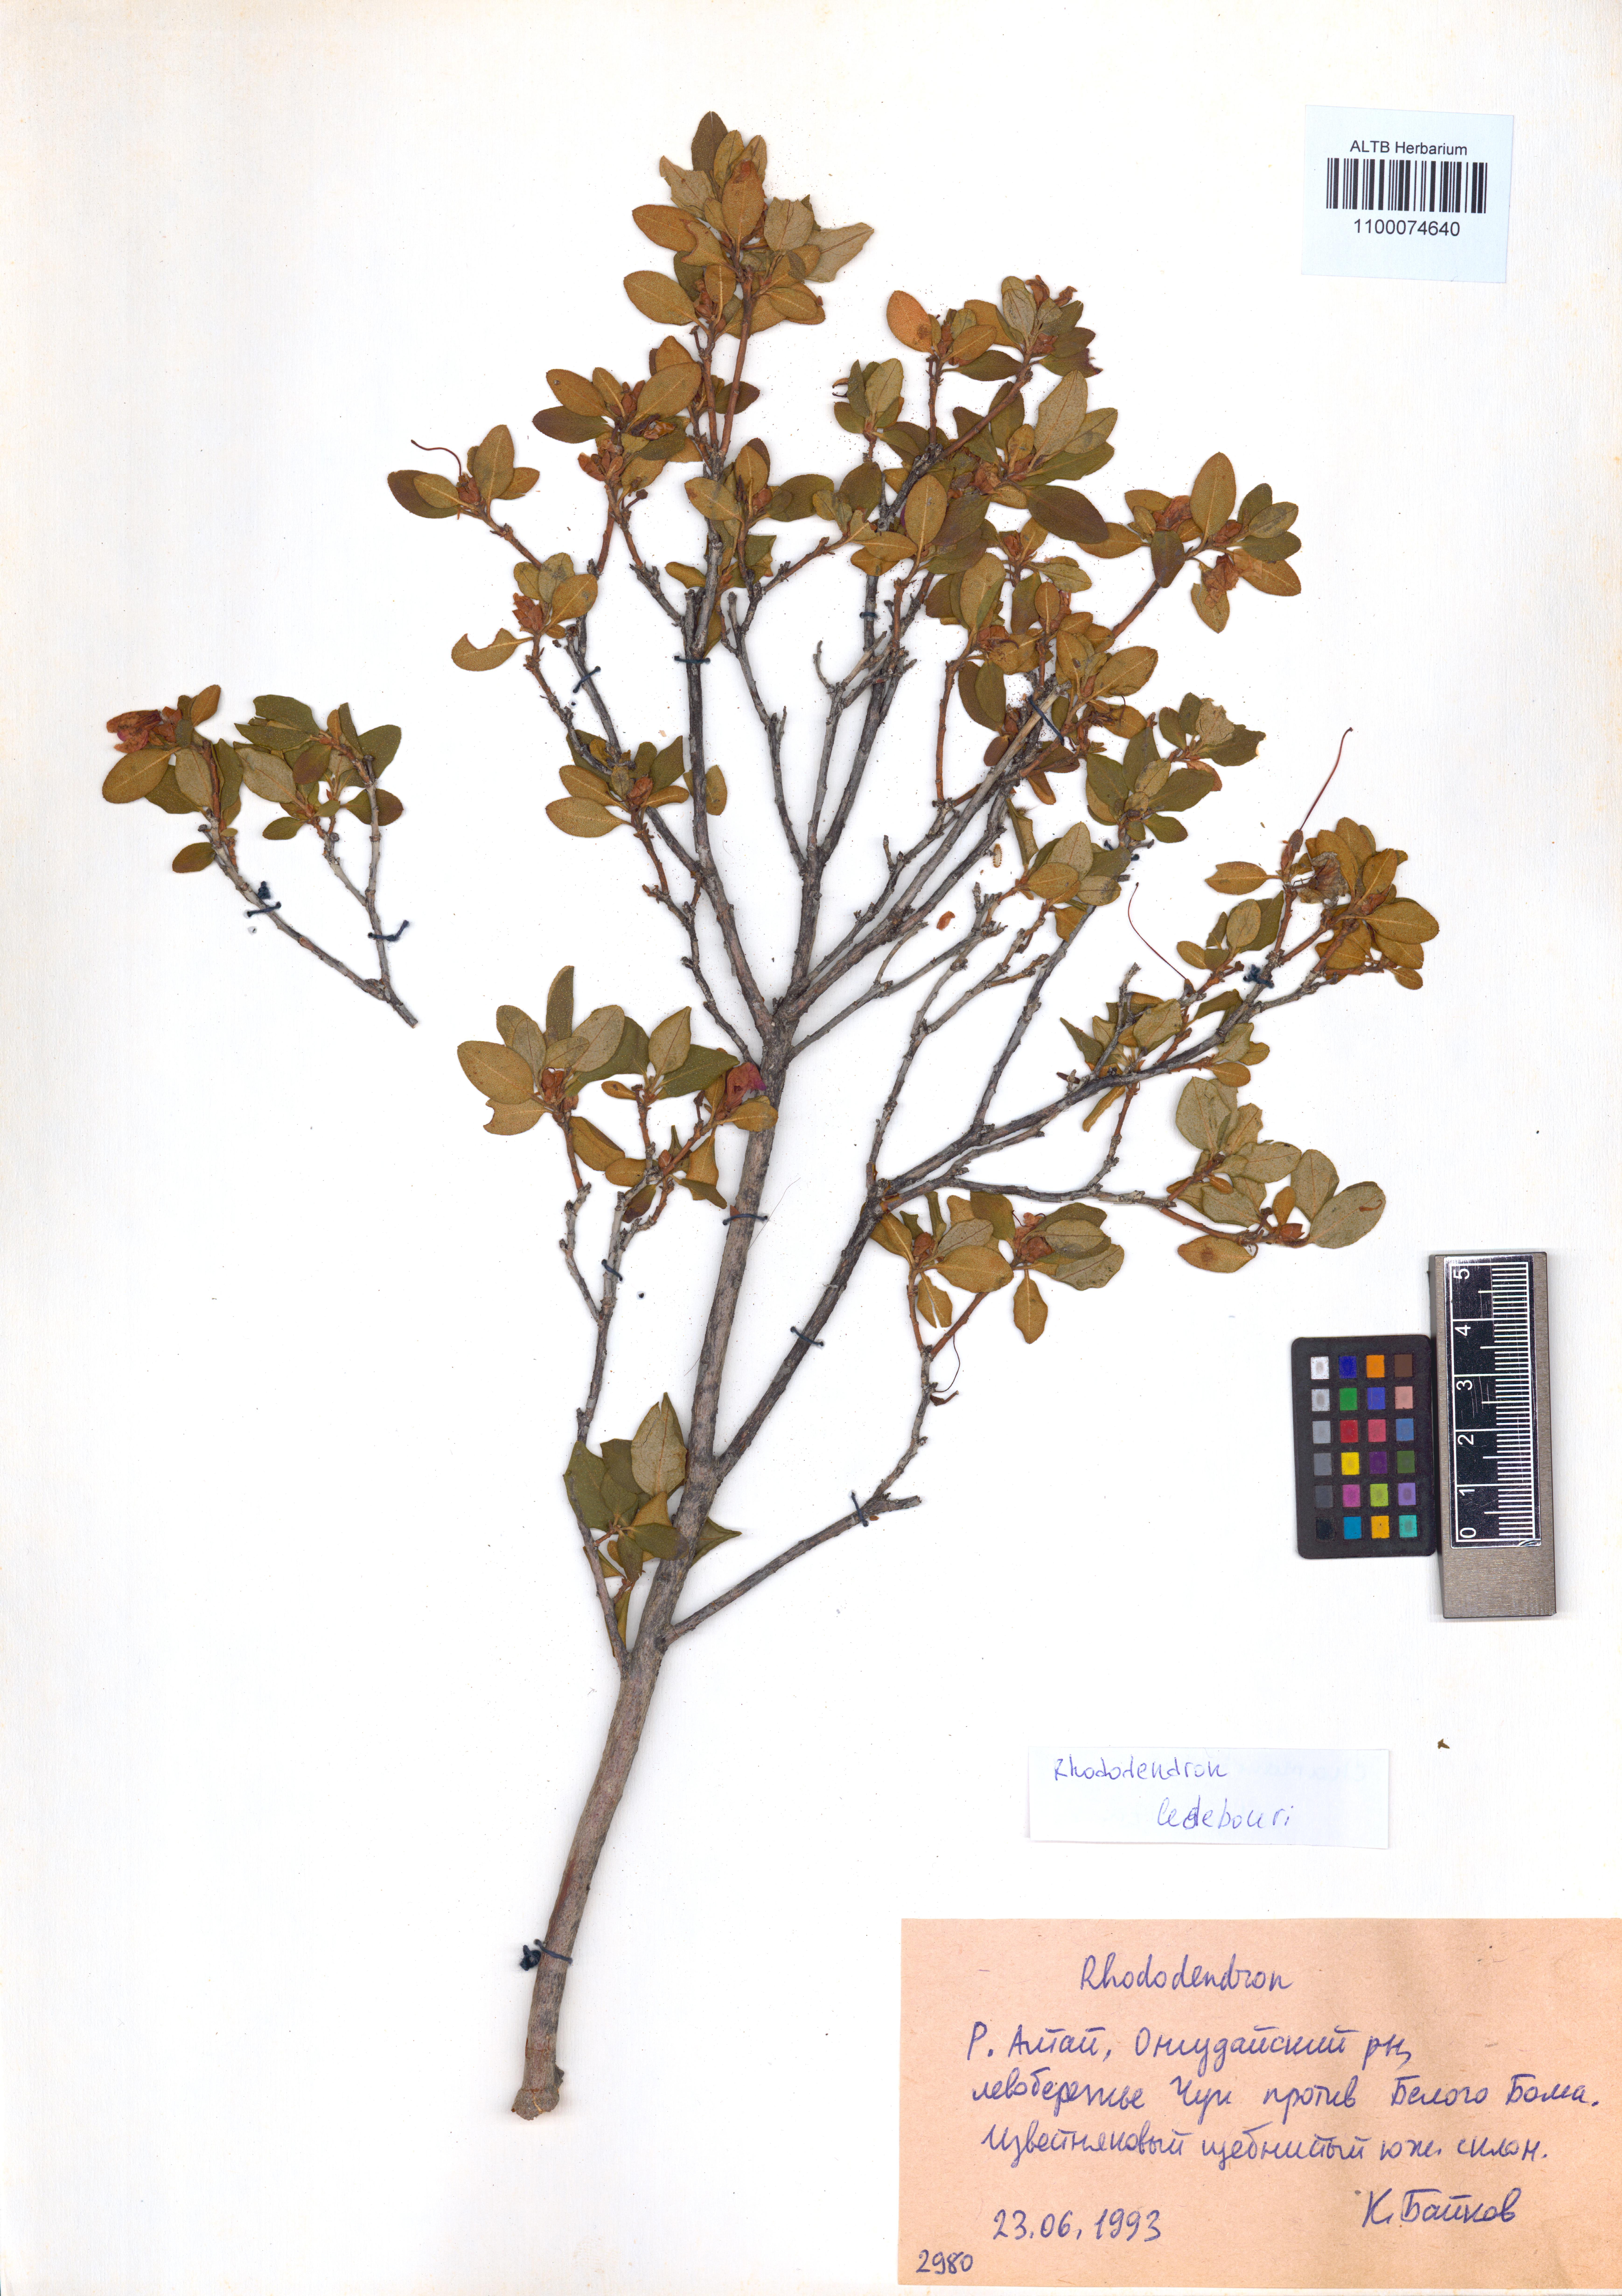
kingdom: Plantae
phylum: Tracheophyta
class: Magnoliopsida
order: Ericales
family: Ericaceae
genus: Rhododendron
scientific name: Rhododendron dauricum
